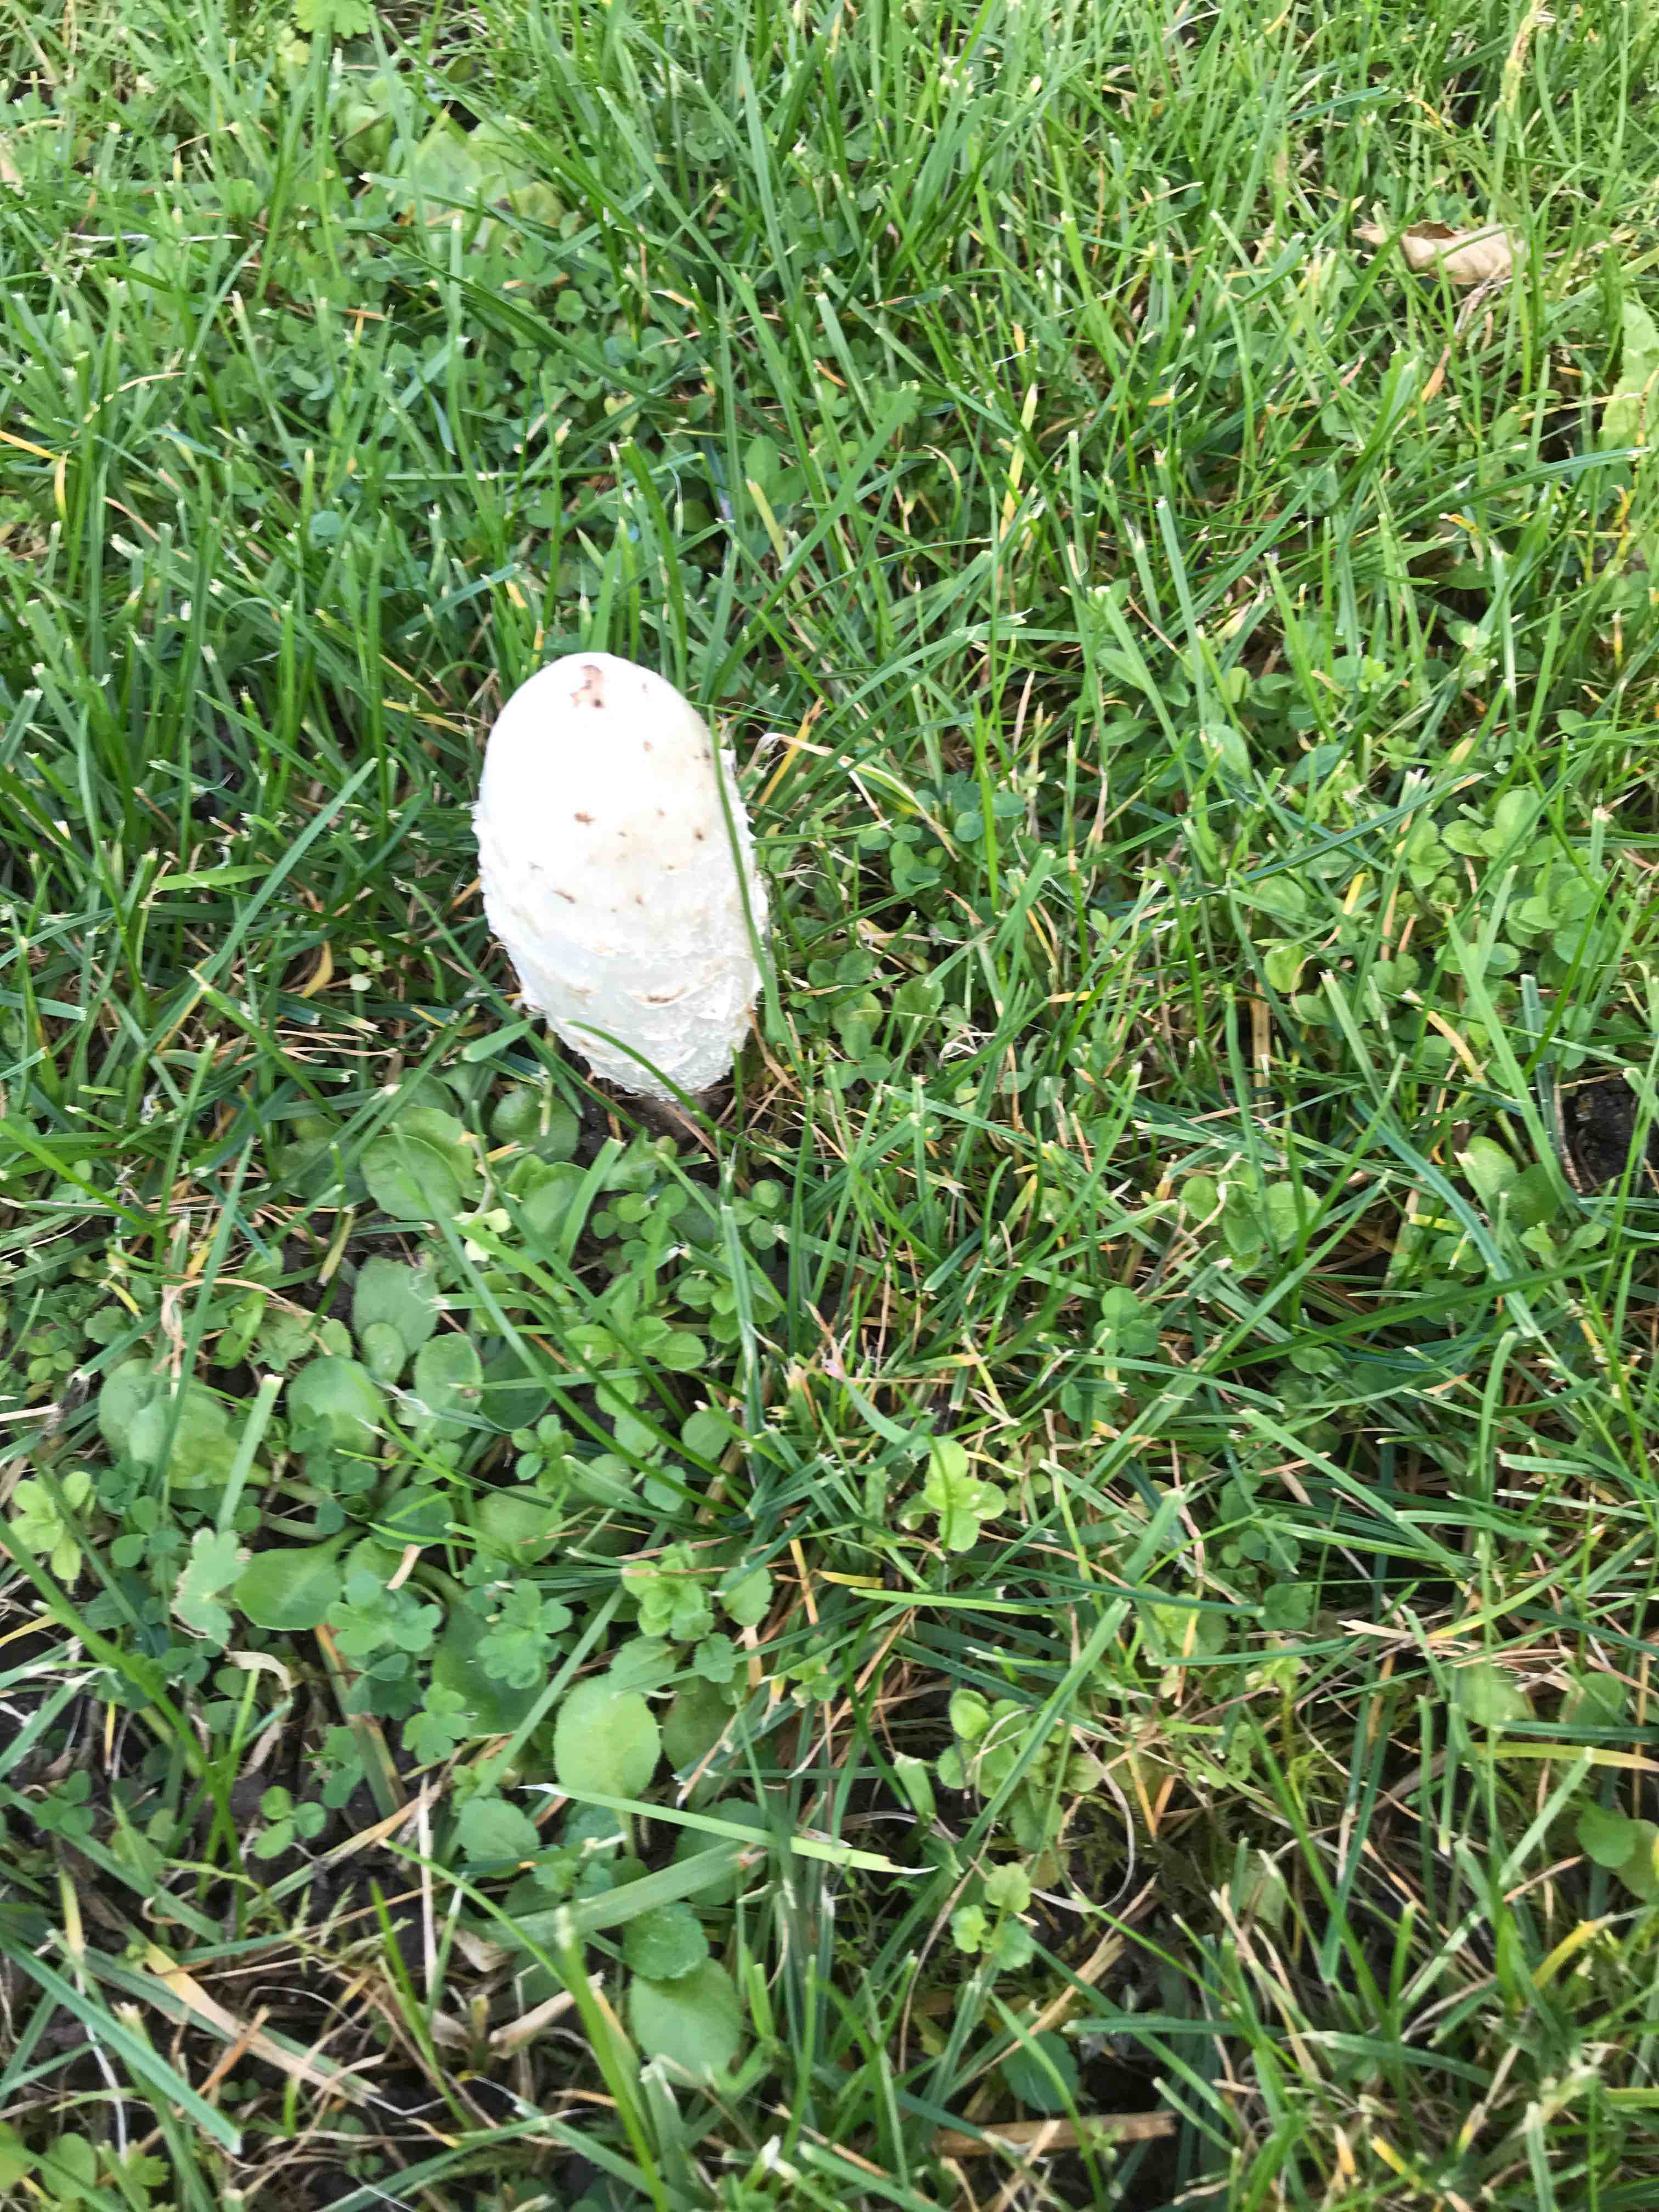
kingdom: Fungi
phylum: Basidiomycota
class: Agaricomycetes
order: Agaricales
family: Agaricaceae
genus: Coprinus
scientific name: Coprinus comatus
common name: stor parykhat
